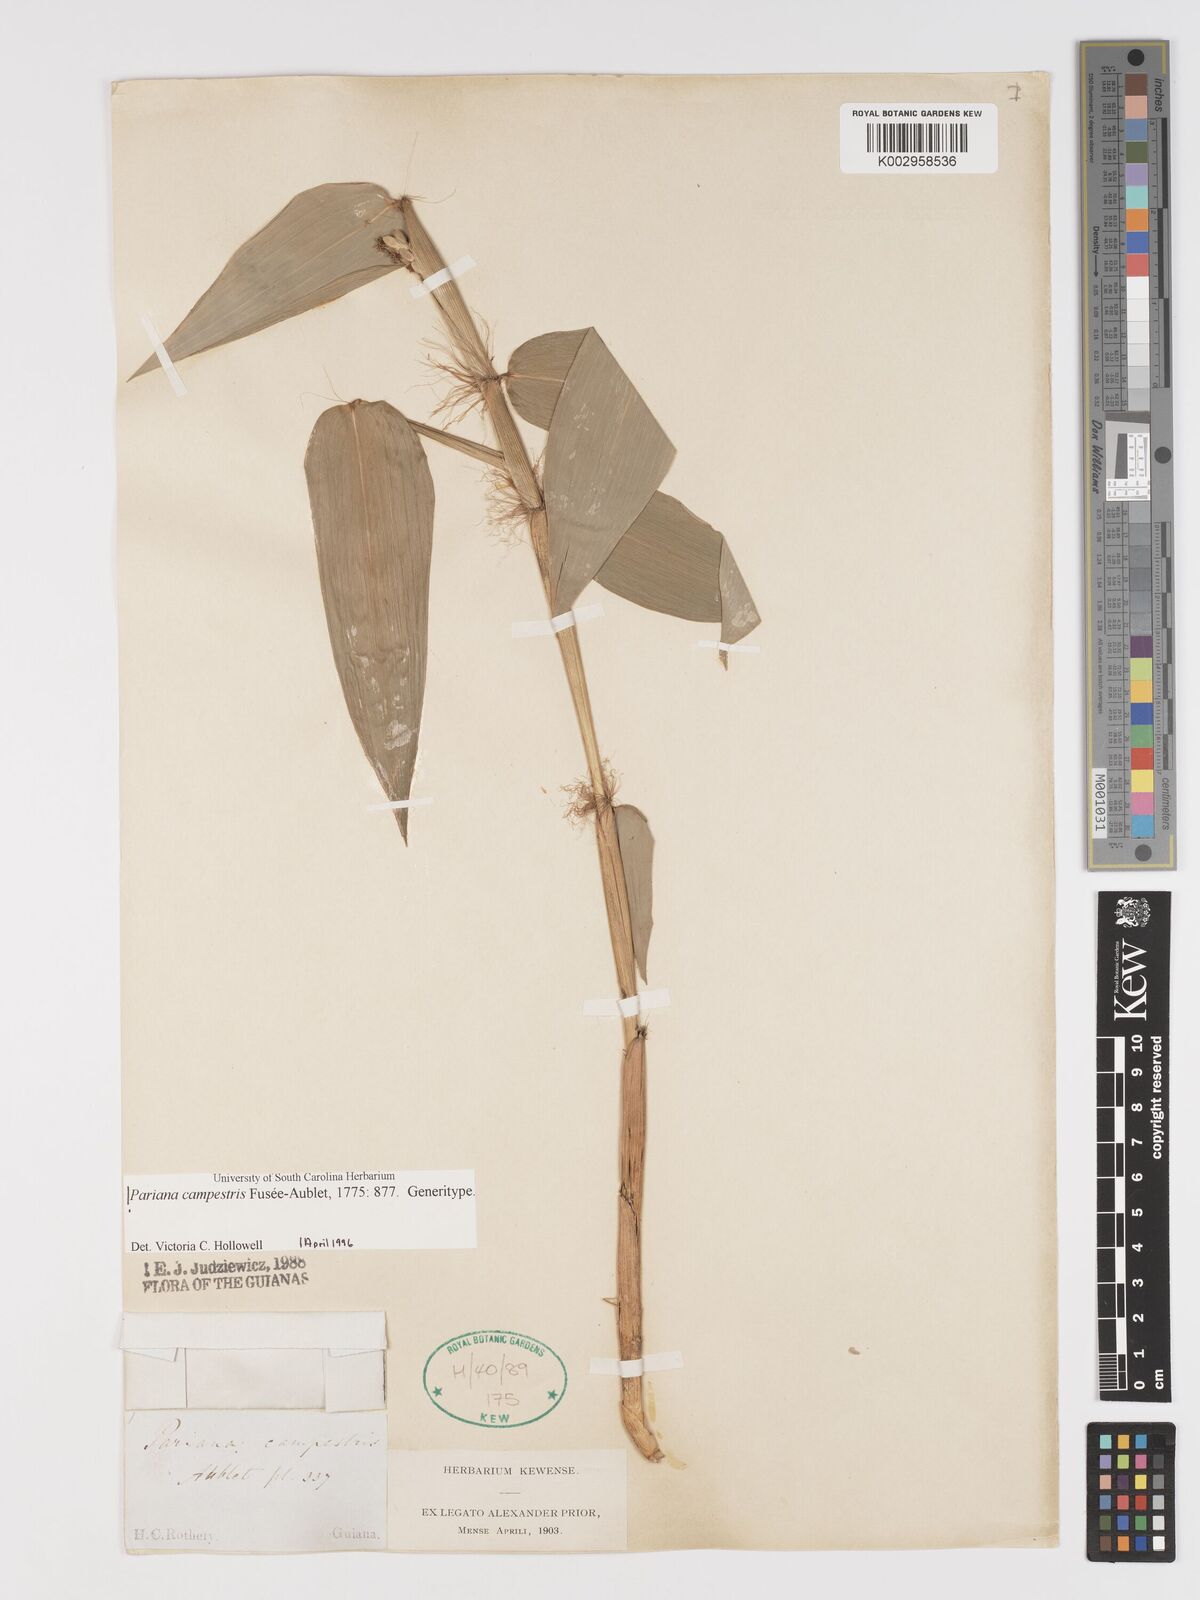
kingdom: Plantae
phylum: Tracheophyta
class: Liliopsida
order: Poales
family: Poaceae
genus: Pariana
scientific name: Pariana campestris
